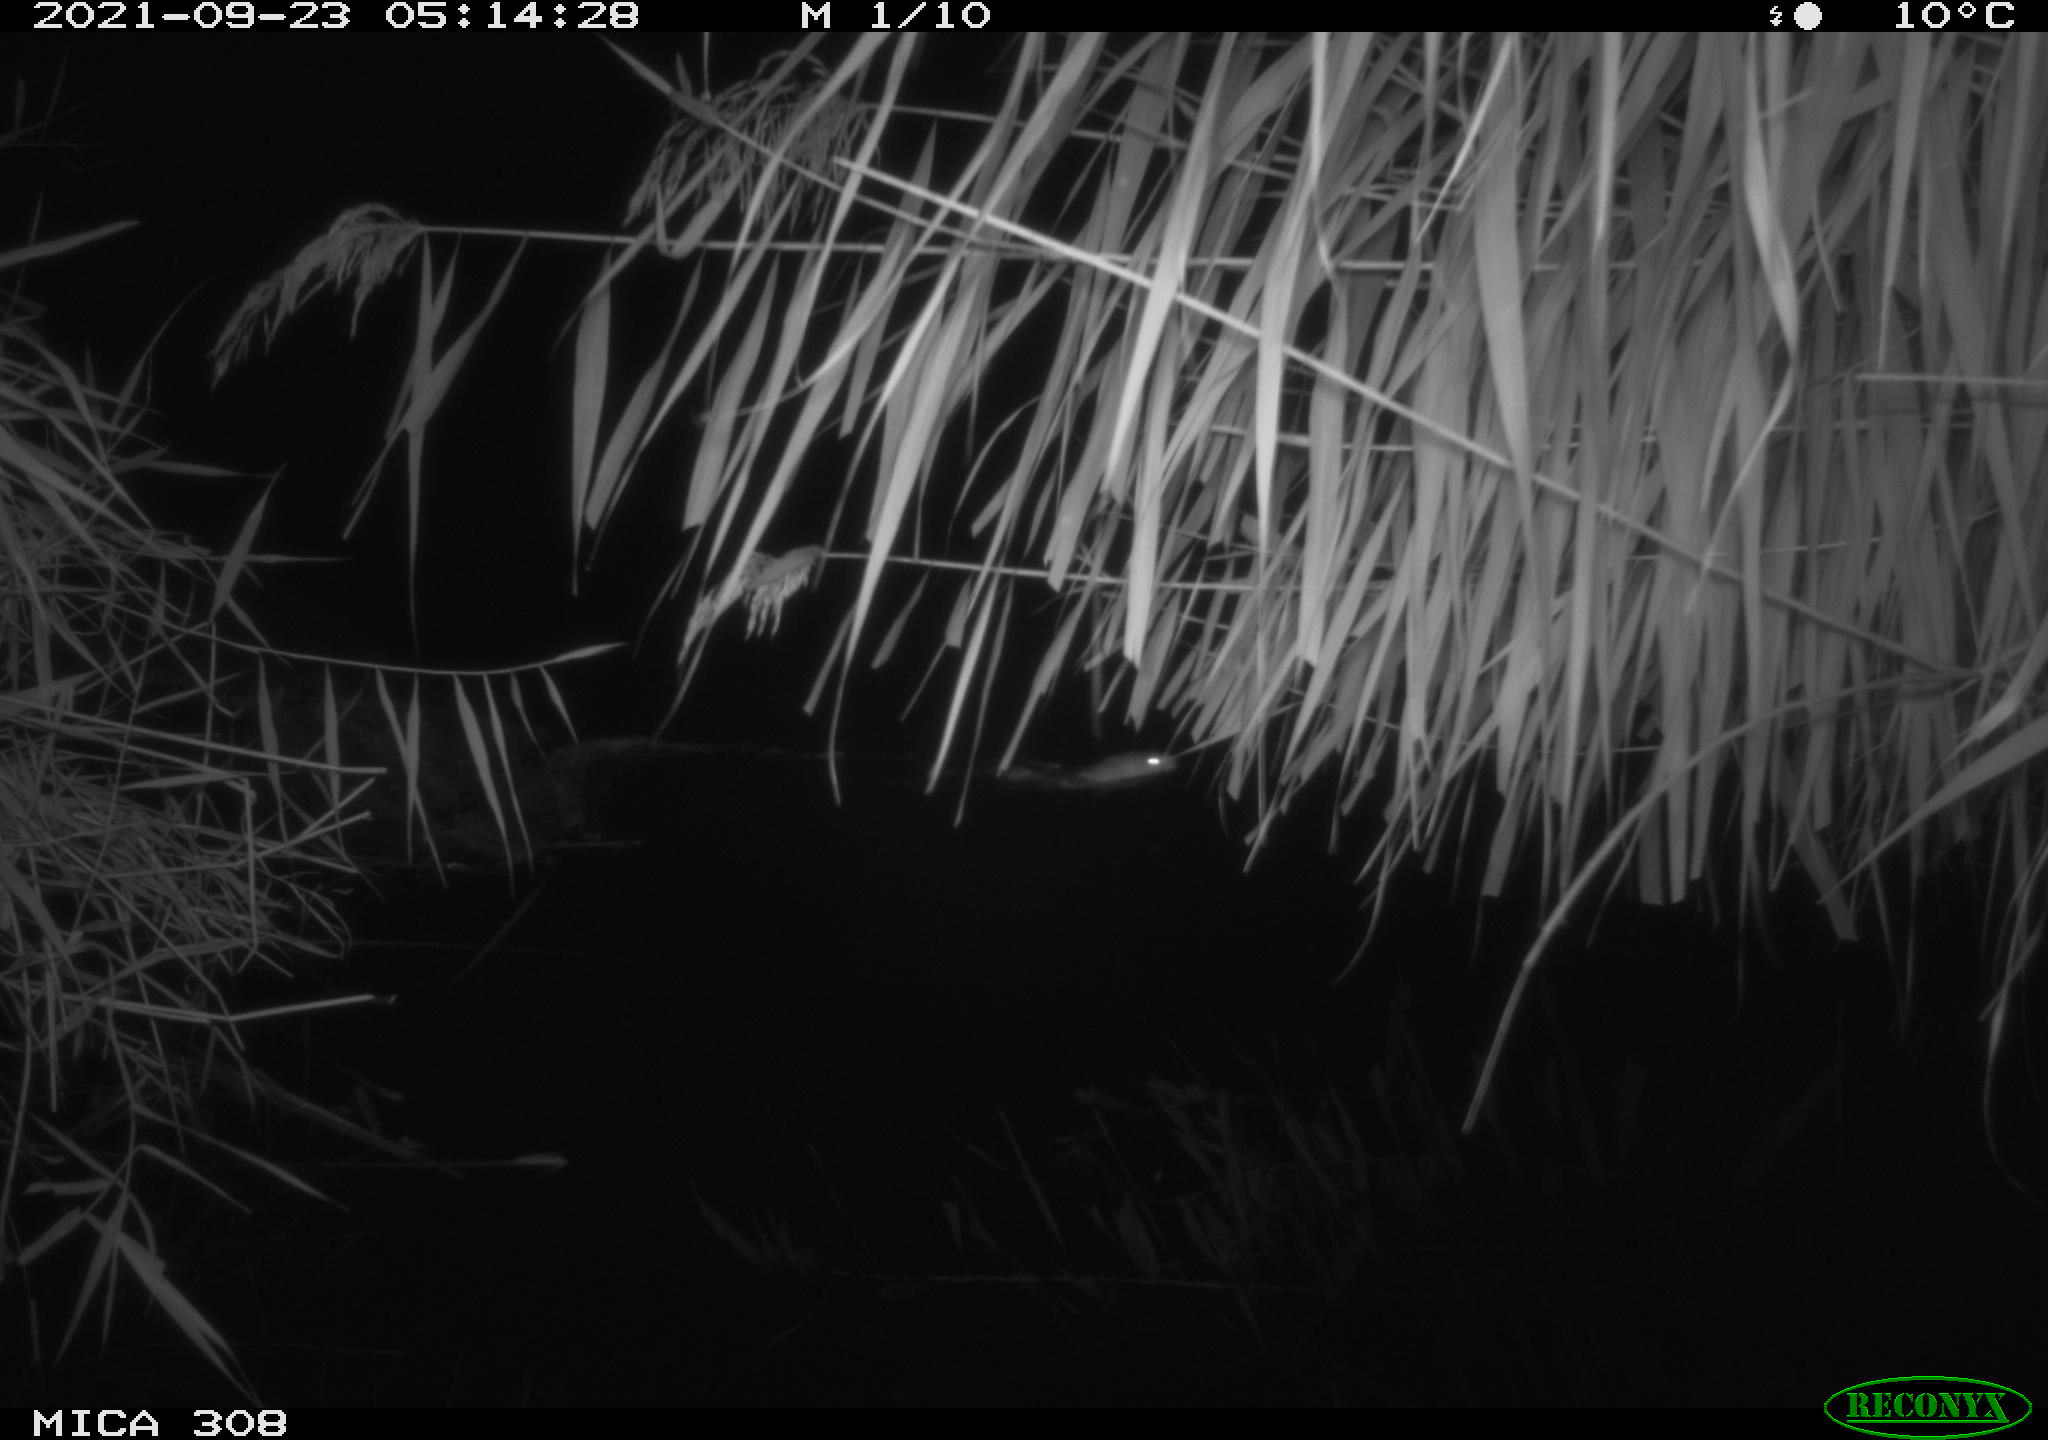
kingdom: Animalia
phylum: Chordata
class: Mammalia
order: Rodentia
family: Muridae
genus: Rattus
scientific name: Rattus norvegicus
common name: Brown rat
